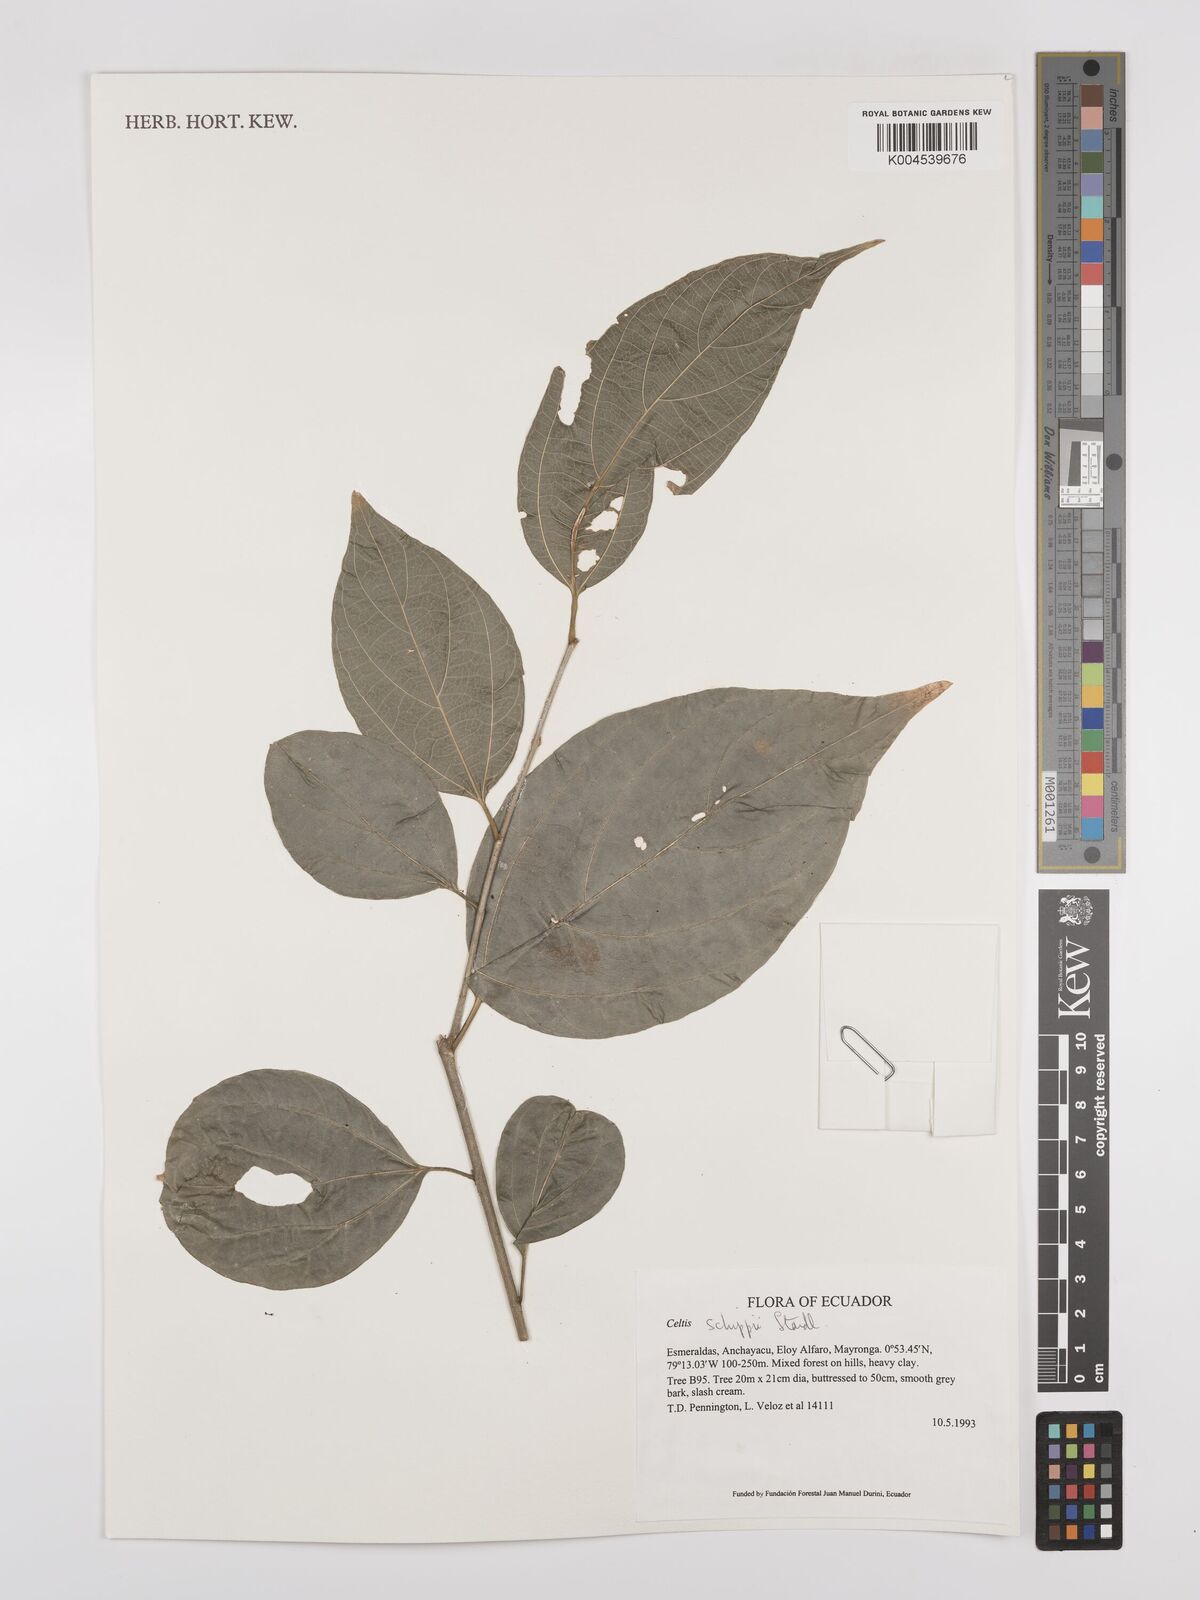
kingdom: Plantae
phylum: Tracheophyta
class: Magnoliopsida
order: Rosales
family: Cannabaceae
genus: Celtis
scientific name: Celtis schippii
